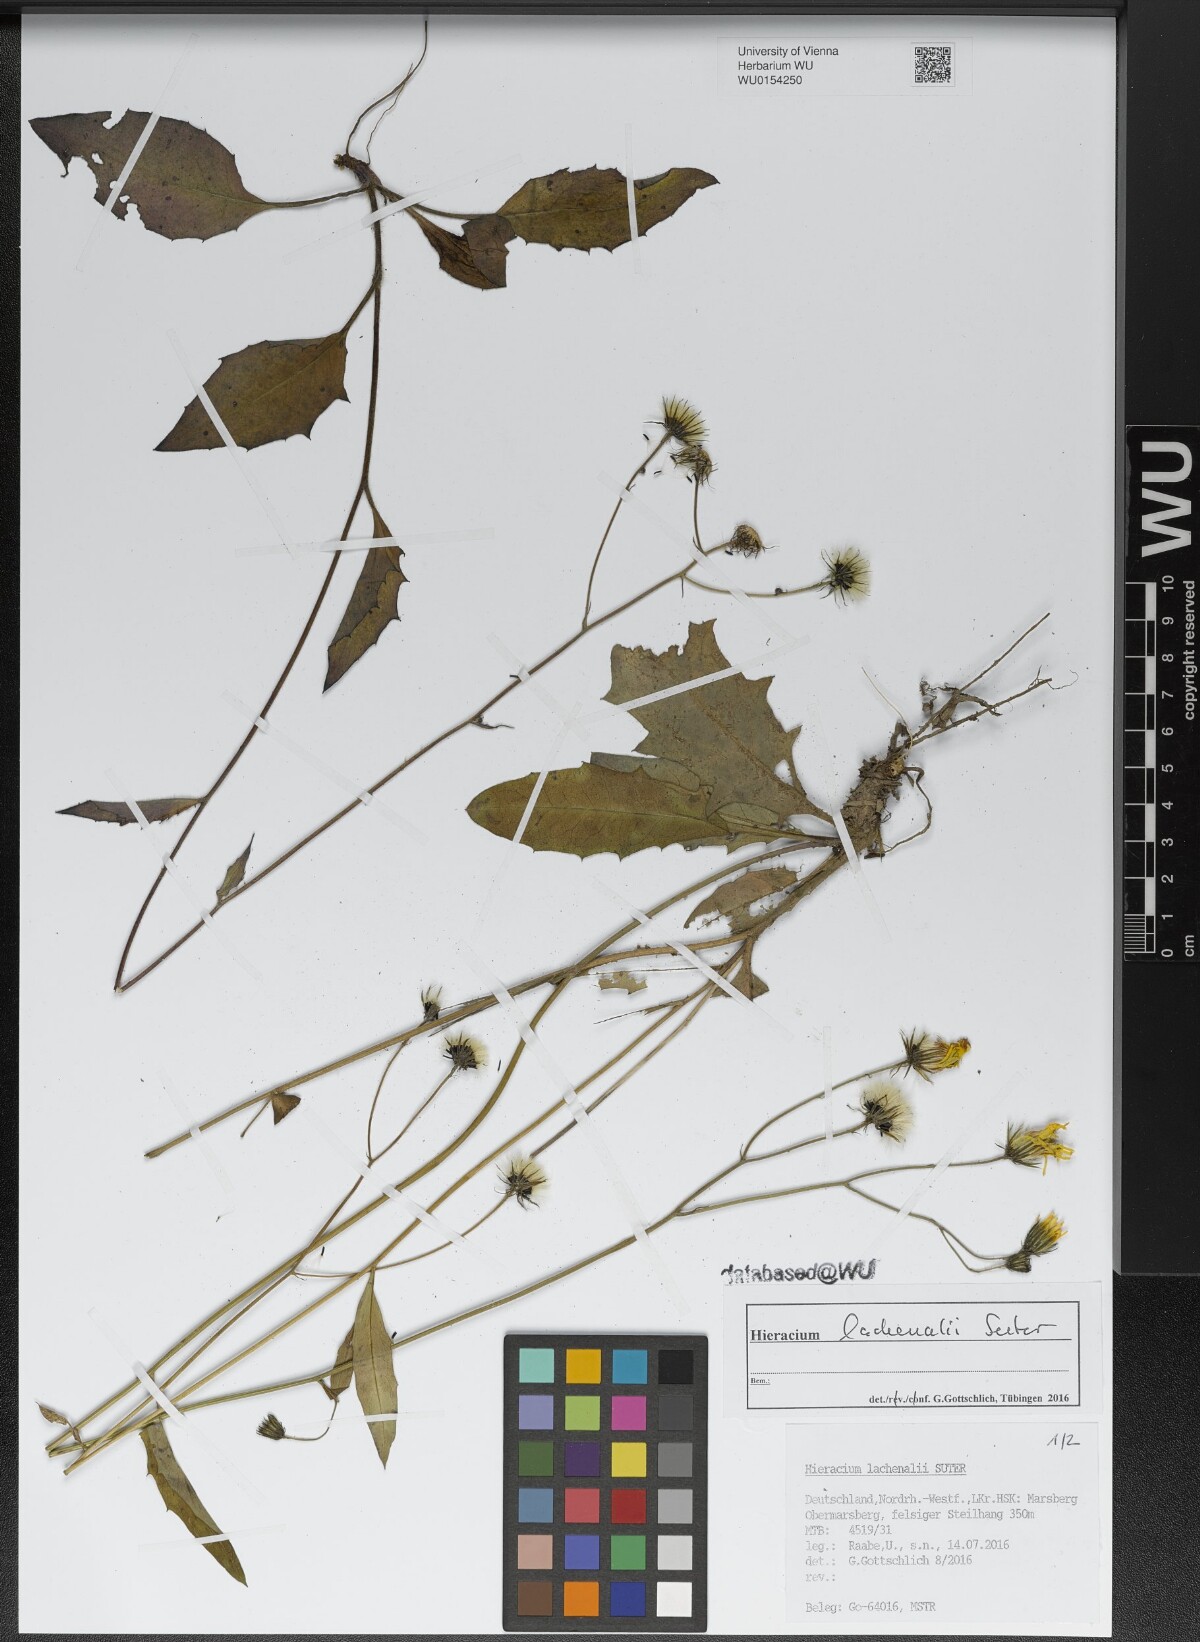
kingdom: Plantae
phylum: Tracheophyta
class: Magnoliopsida
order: Asterales
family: Asteraceae
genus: Hieracium
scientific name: Hieracium lachenalii
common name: Common hawkweed
